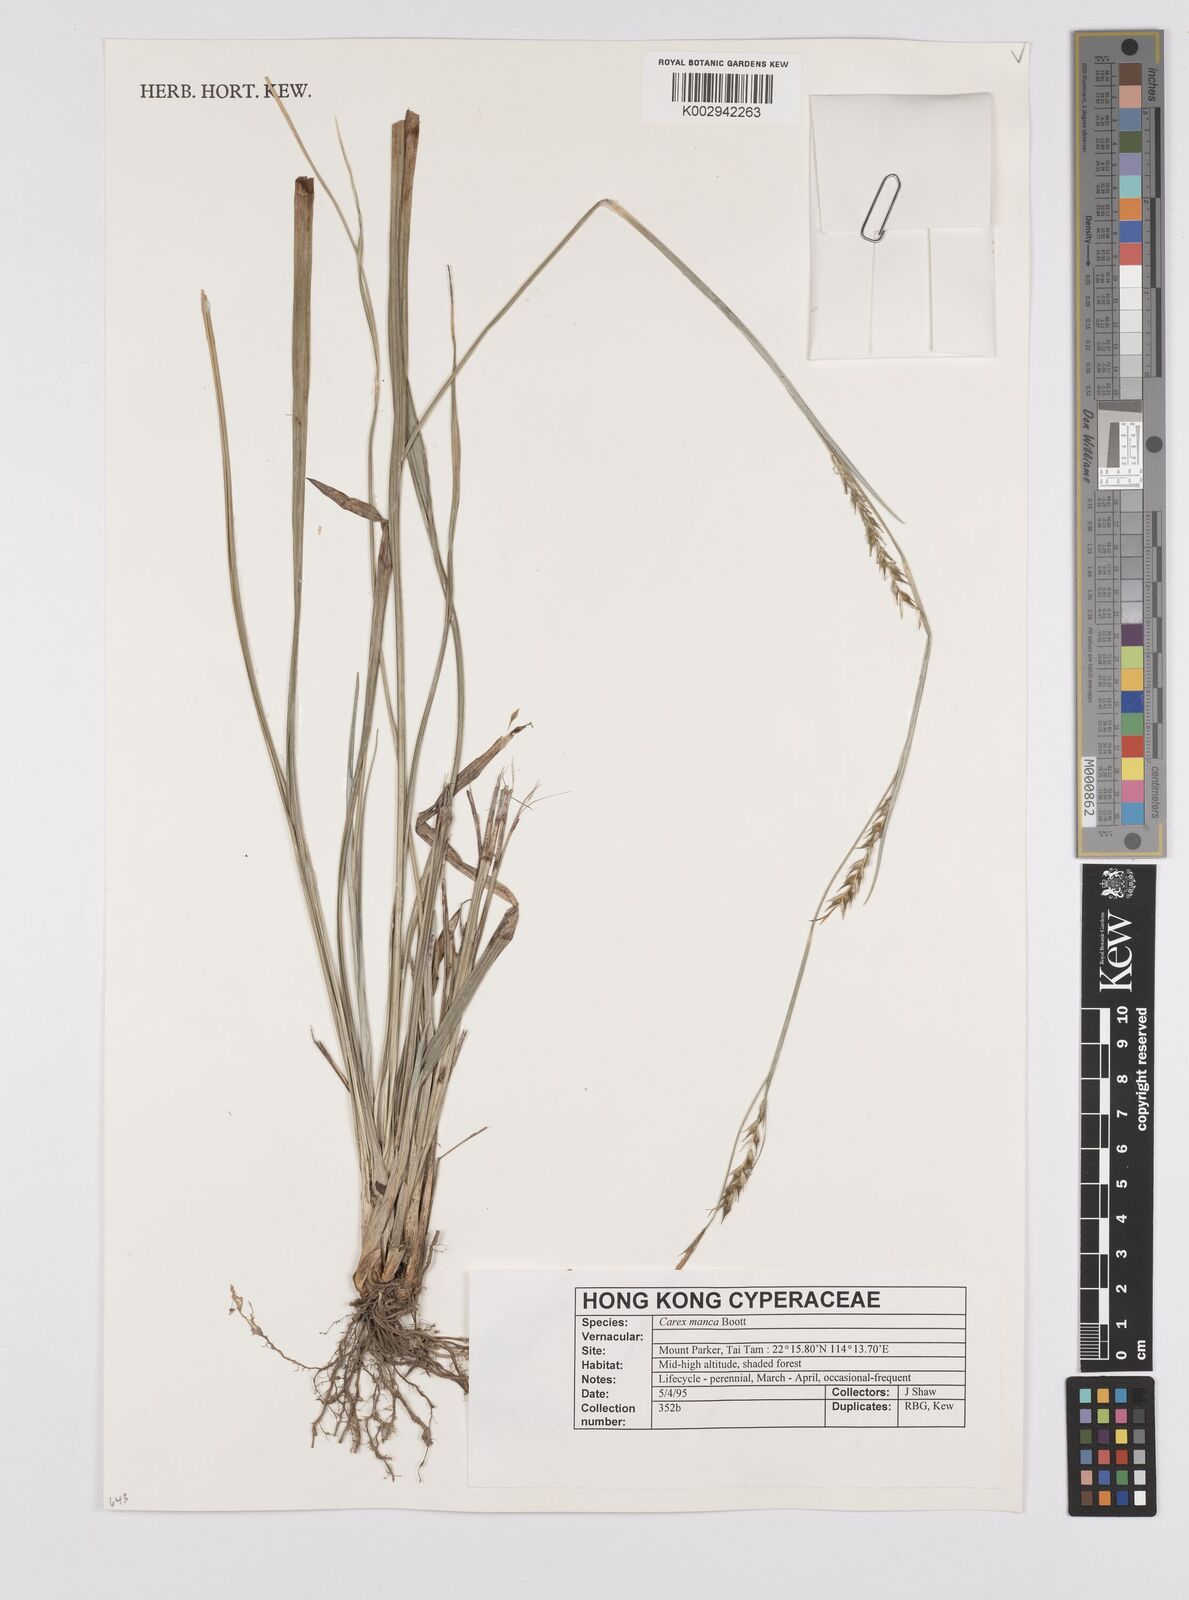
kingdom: Plantae
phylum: Tracheophyta
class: Liliopsida
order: Poales
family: Cyperaceae
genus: Carex
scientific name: Carex manca
